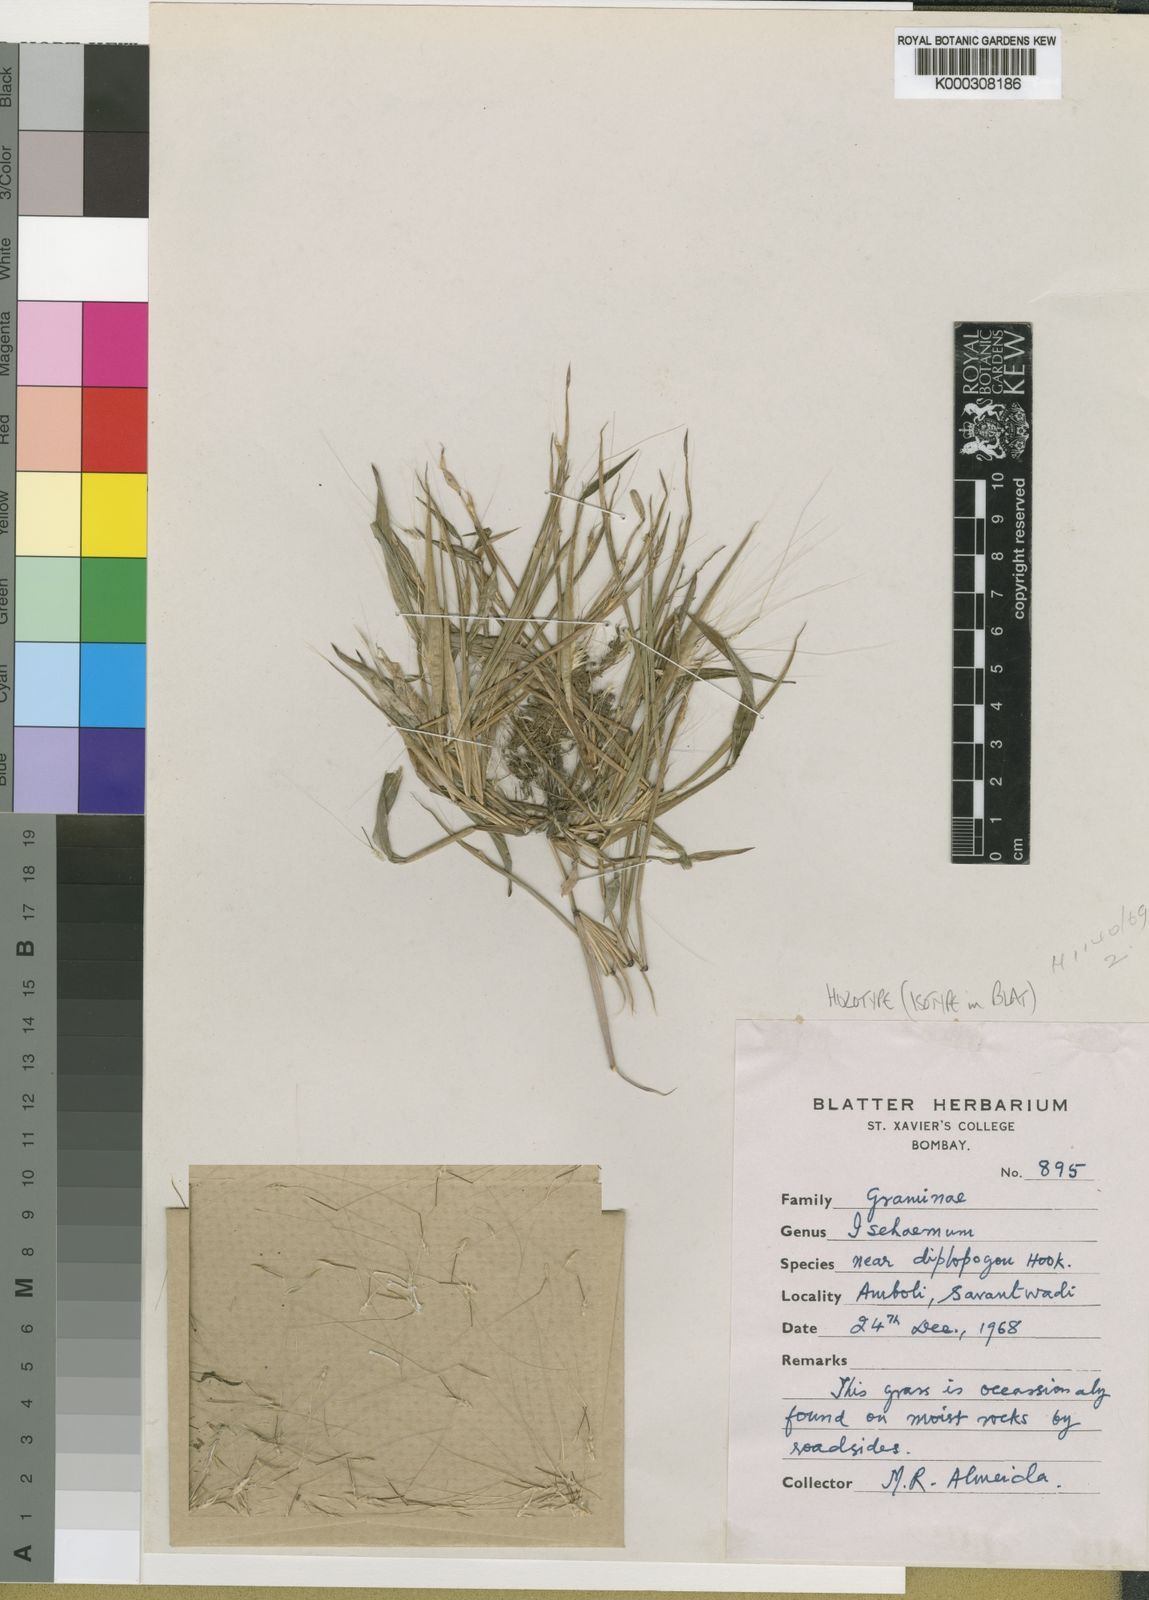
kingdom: Plantae
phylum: Tracheophyta
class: Liliopsida
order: Poales
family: Poaceae
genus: Ischaemum
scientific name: Ischaemum kingii
